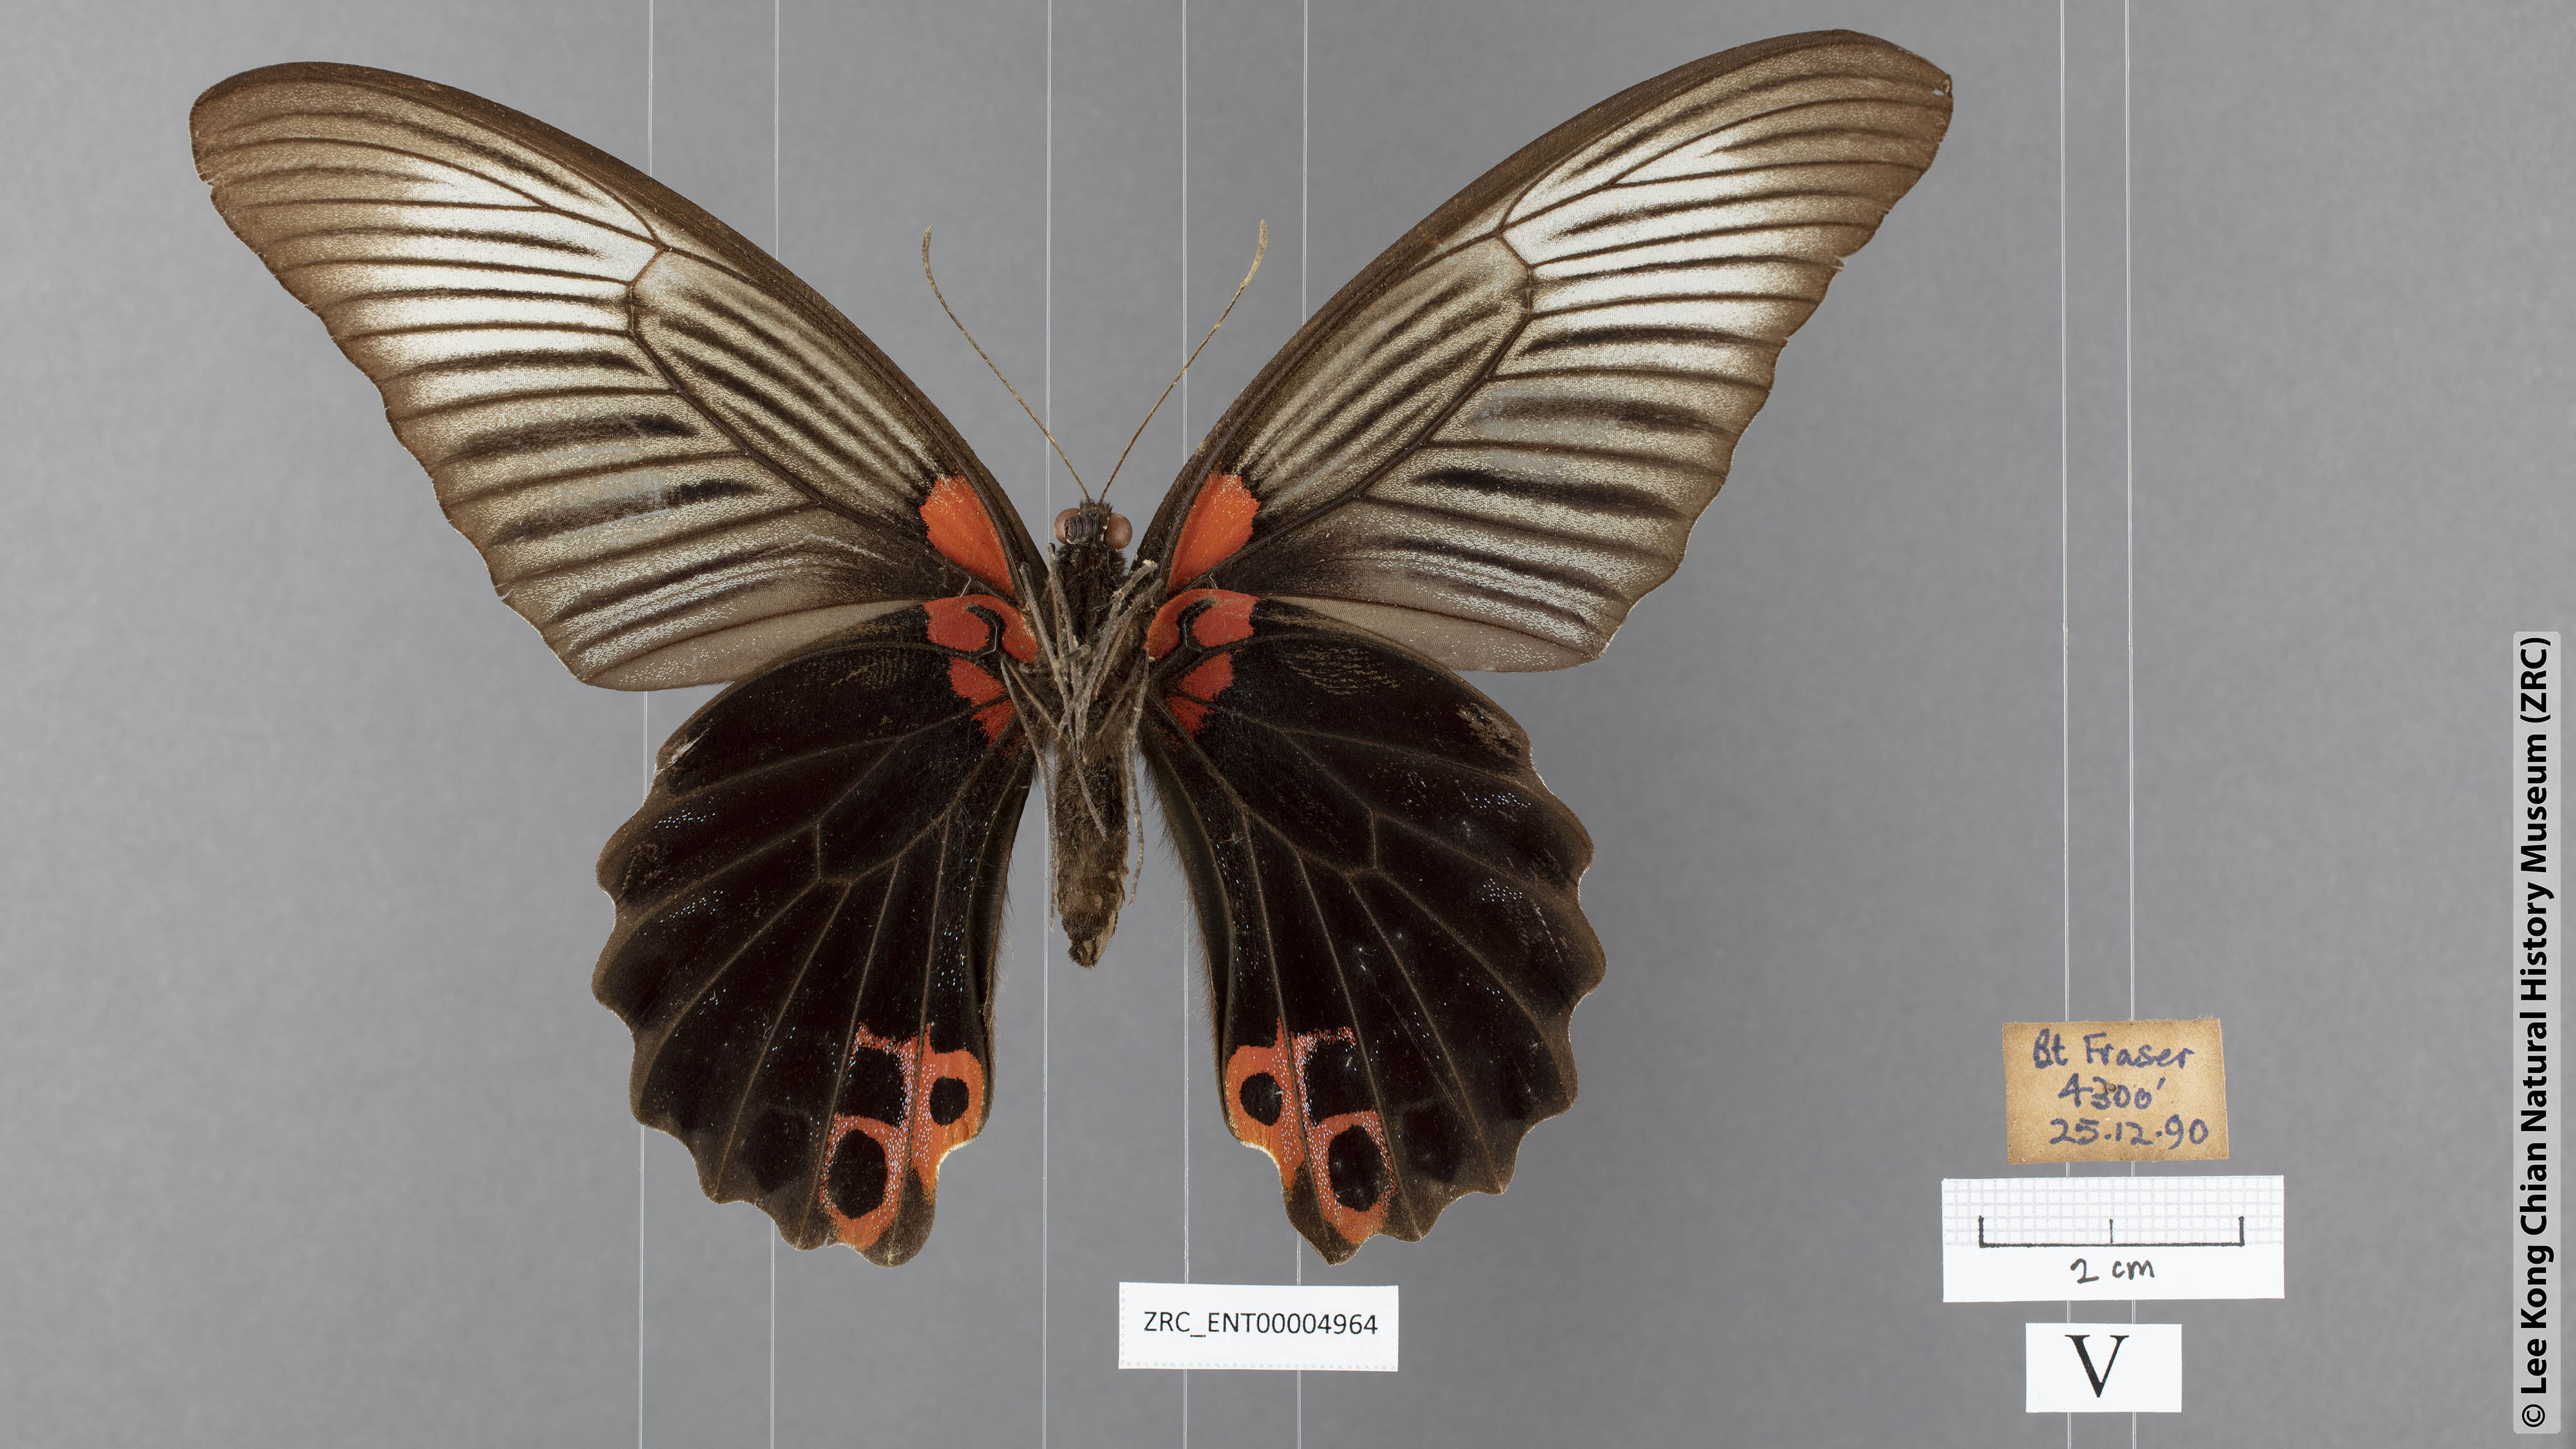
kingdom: Animalia
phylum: Arthropoda
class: Insecta
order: Lepidoptera
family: Papilionidae
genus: Papilio
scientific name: Papilio memnon
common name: Great mormon
